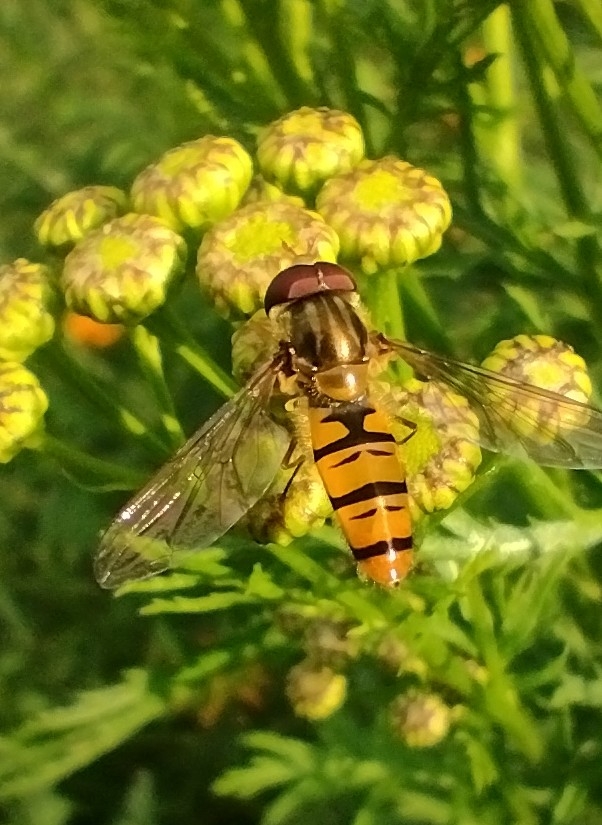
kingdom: Animalia
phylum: Arthropoda
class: Insecta
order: Diptera
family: Syrphidae
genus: Episyrphus
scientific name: Episyrphus balteatus
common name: Dobbeltbåndet svirreflue
